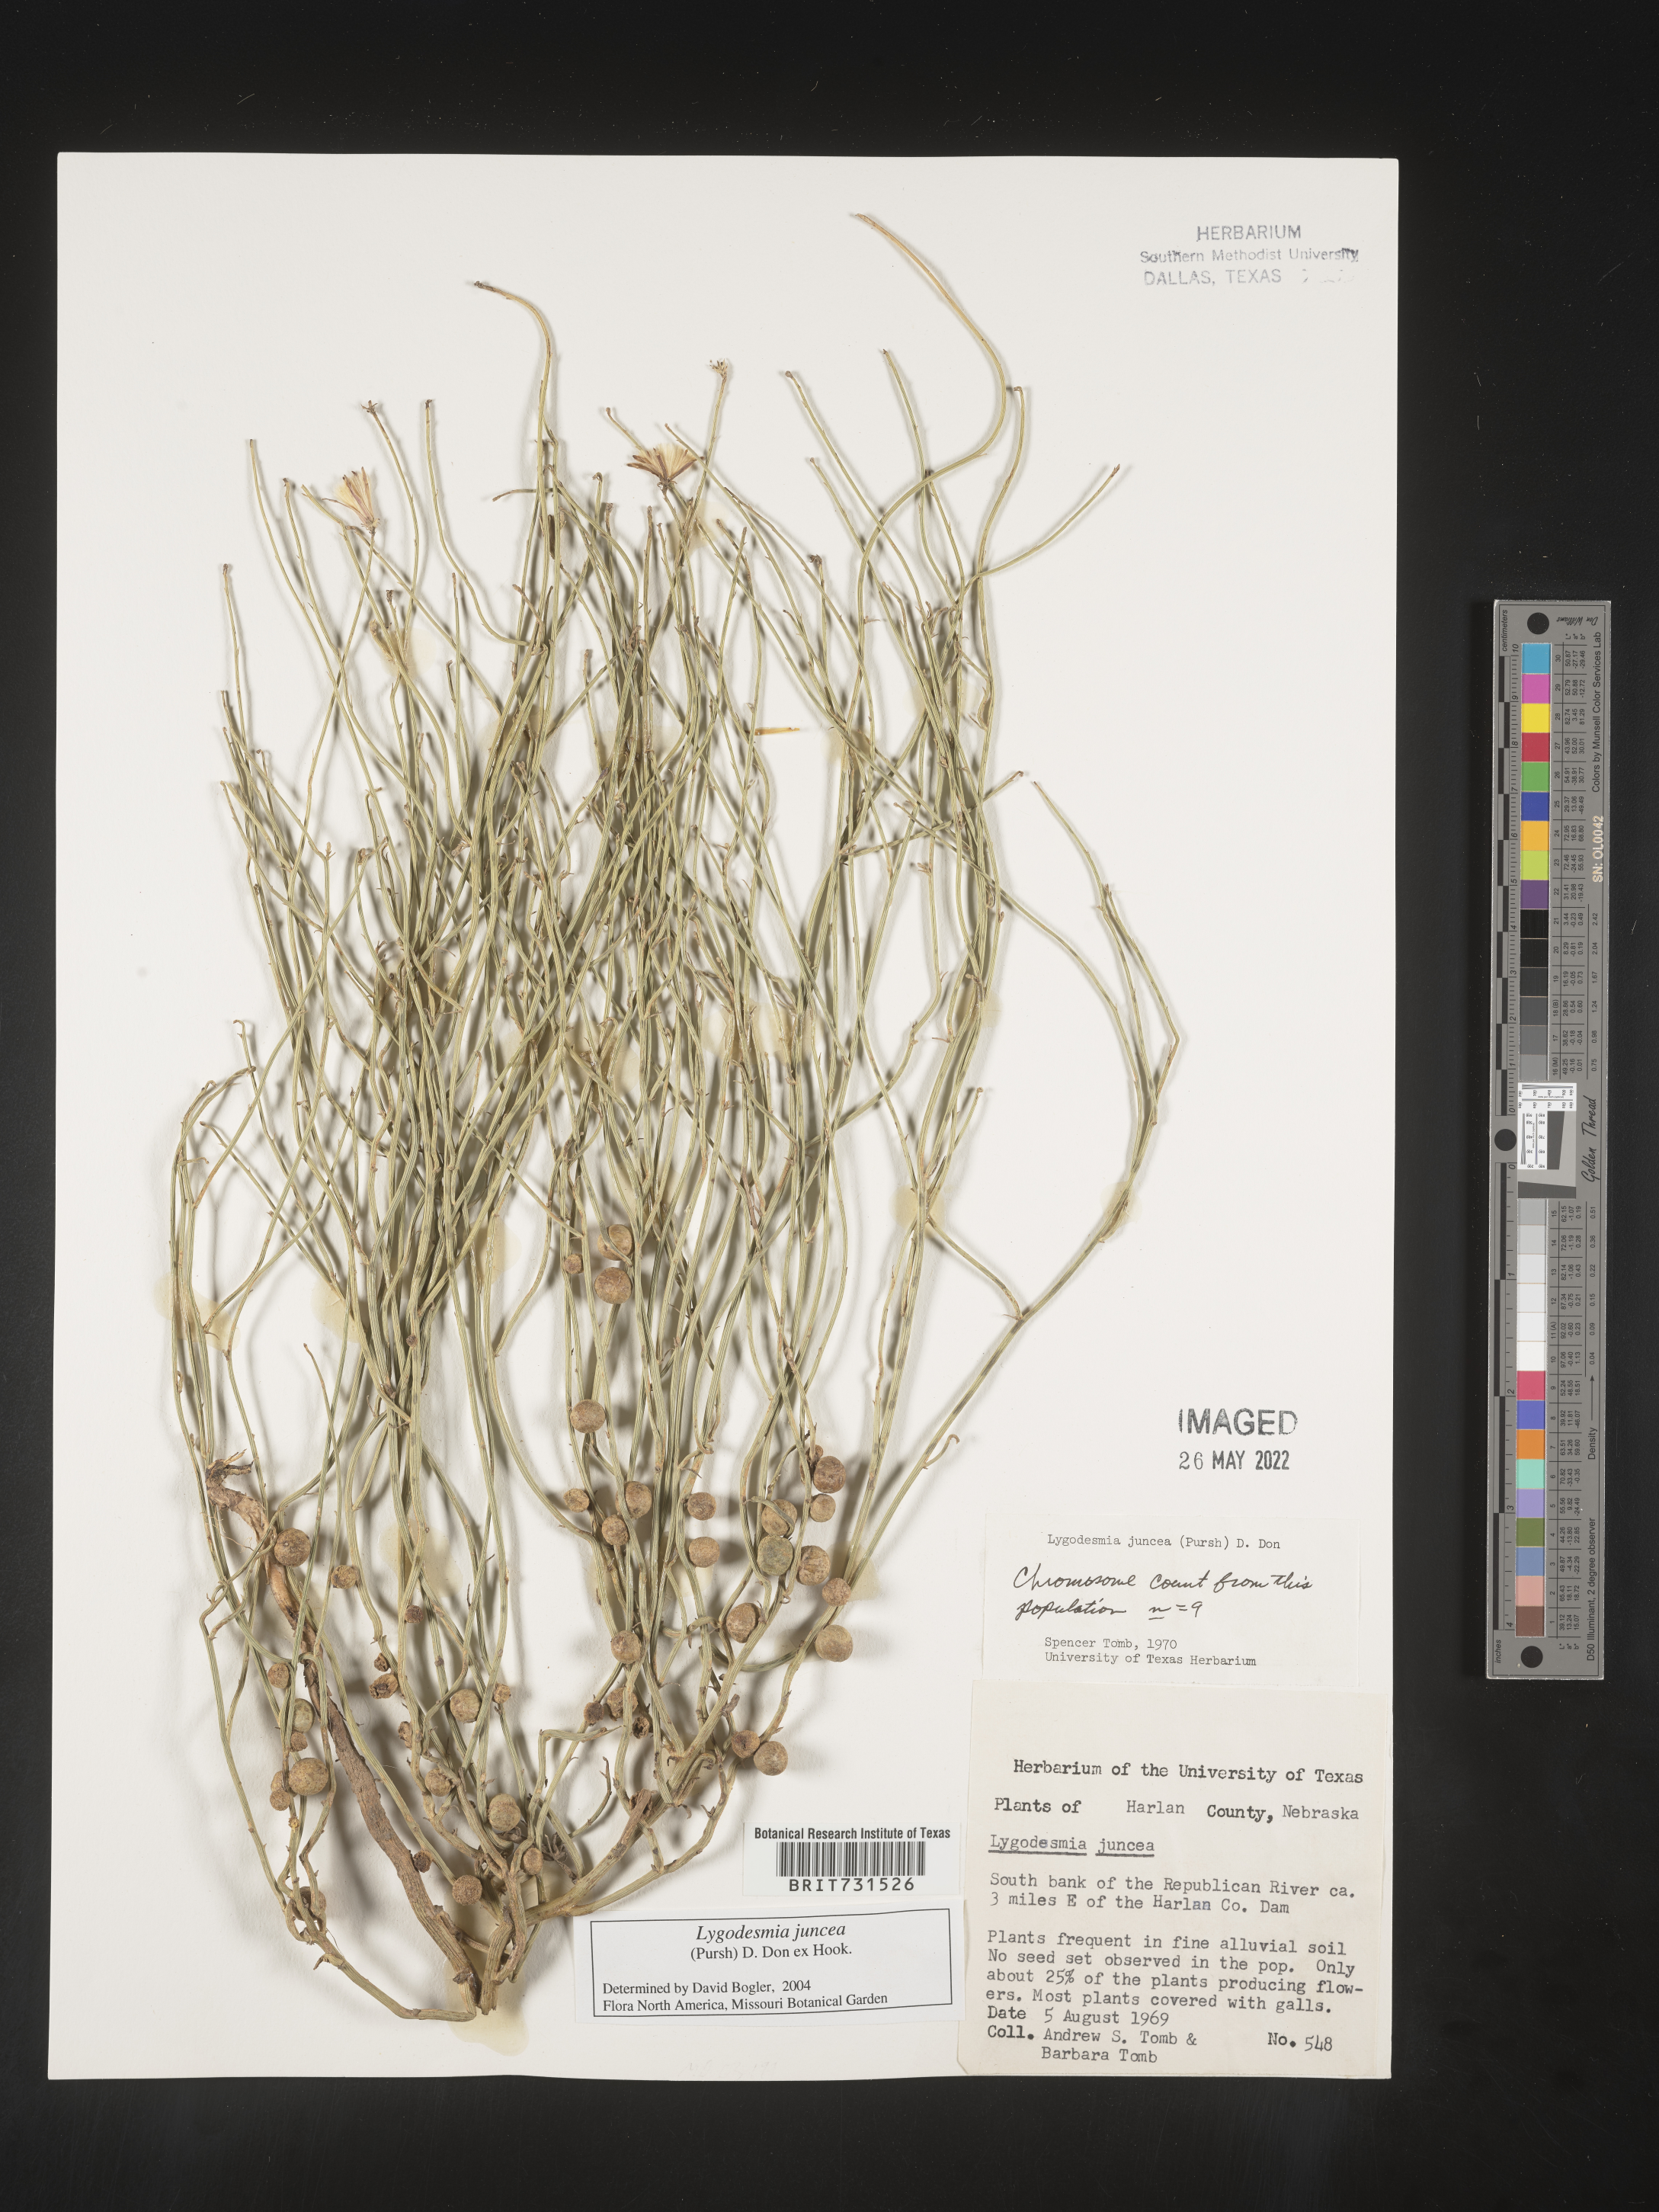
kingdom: Plantae
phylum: Tracheophyta
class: Magnoliopsida
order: Asterales
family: Asteraceae
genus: Lygodesmia
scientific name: Lygodesmia juncea
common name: Common skeletonweed
